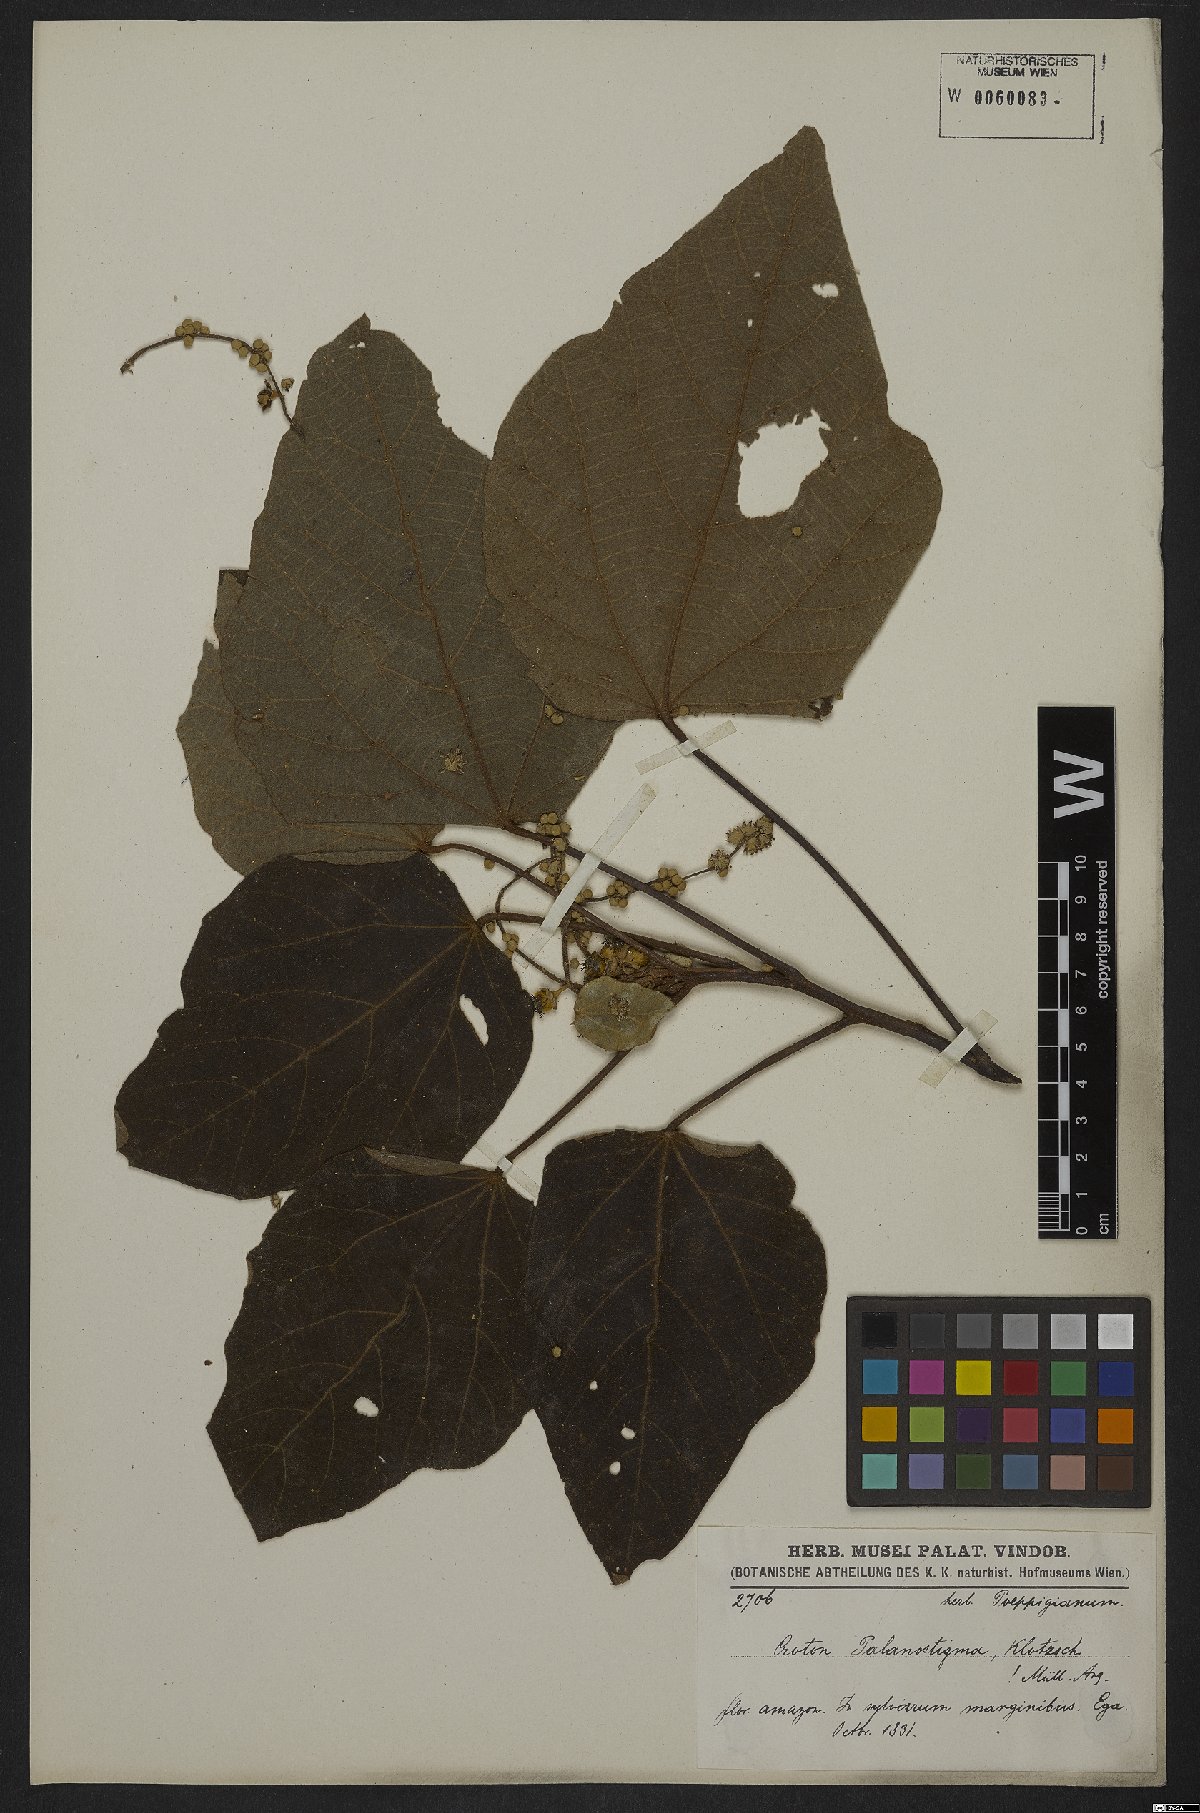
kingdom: Plantae
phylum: Tracheophyta
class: Magnoliopsida
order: Malpighiales
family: Euphorbiaceae
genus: Croton
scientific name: Croton palanostigma
